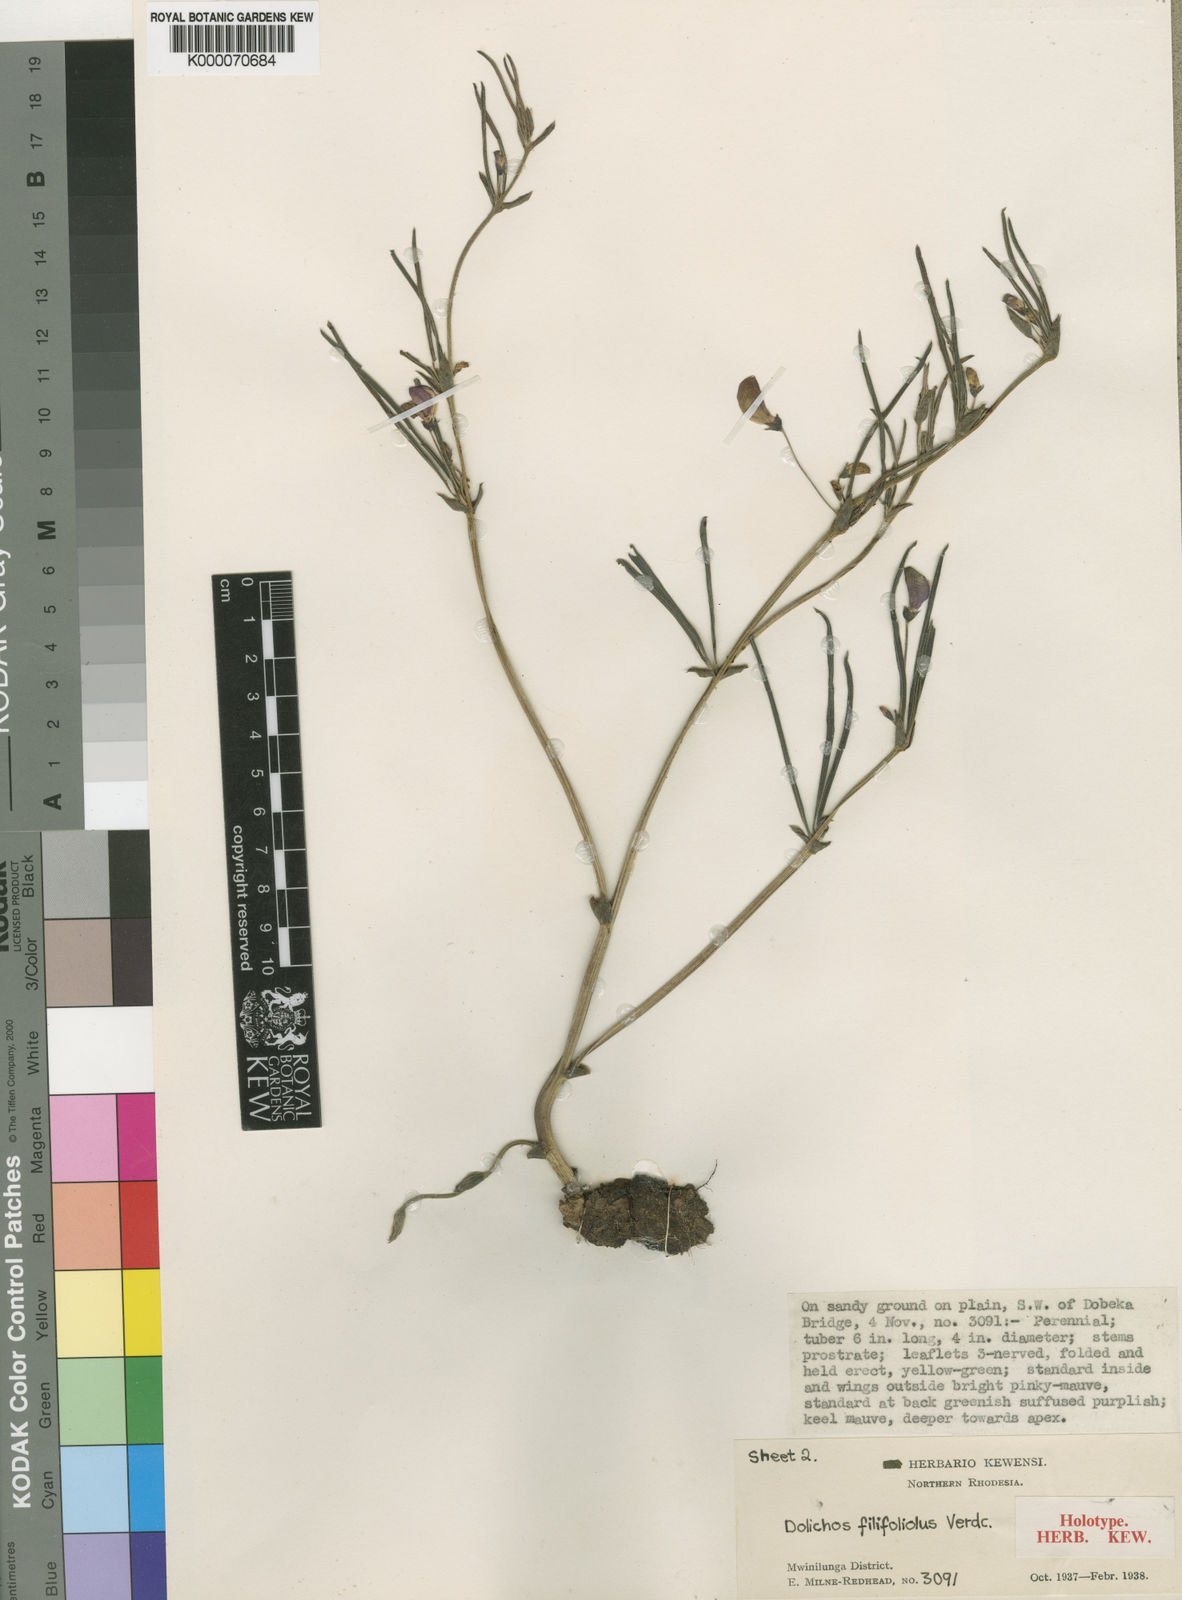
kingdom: Plantae
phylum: Tracheophyta
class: Magnoliopsida
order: Fabales
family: Fabaceae
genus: Dolichos
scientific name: Dolichos filifoliolus
